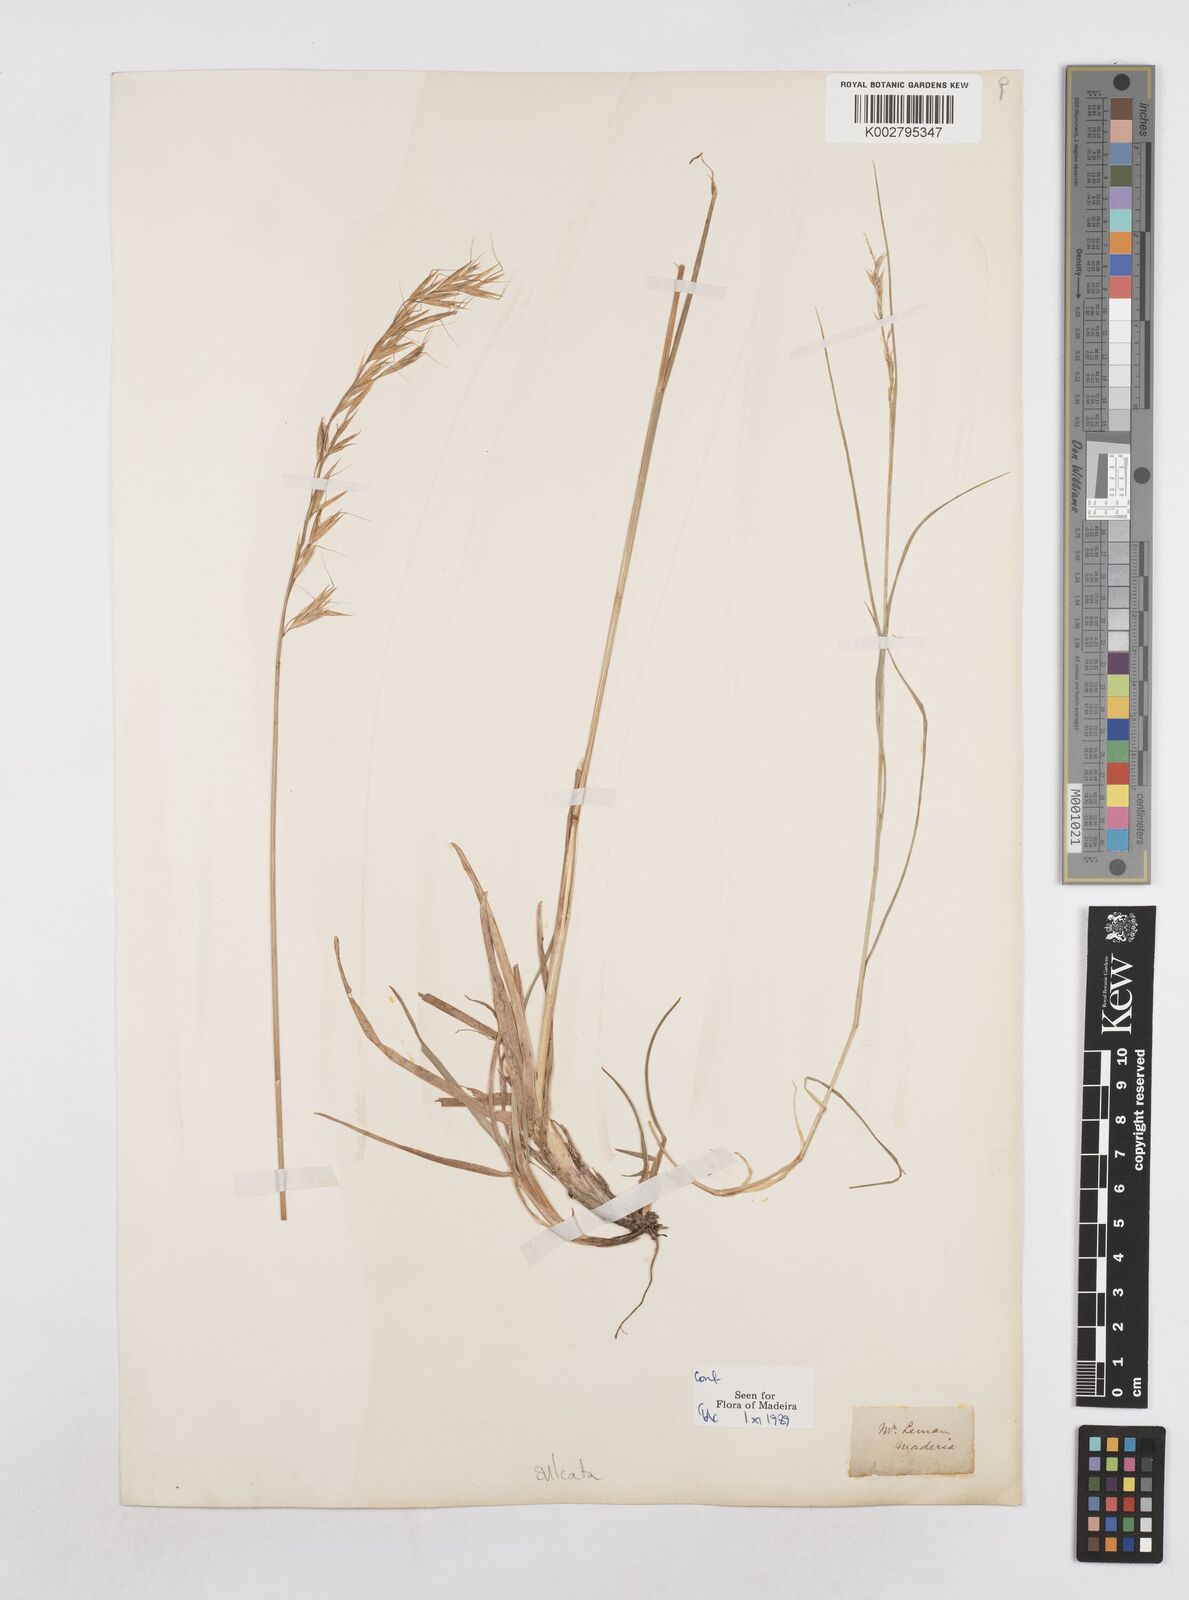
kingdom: Plantae
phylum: Tracheophyta
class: Liliopsida
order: Poales
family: Poaceae
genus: Helictotrichon
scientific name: Helictotrichon
